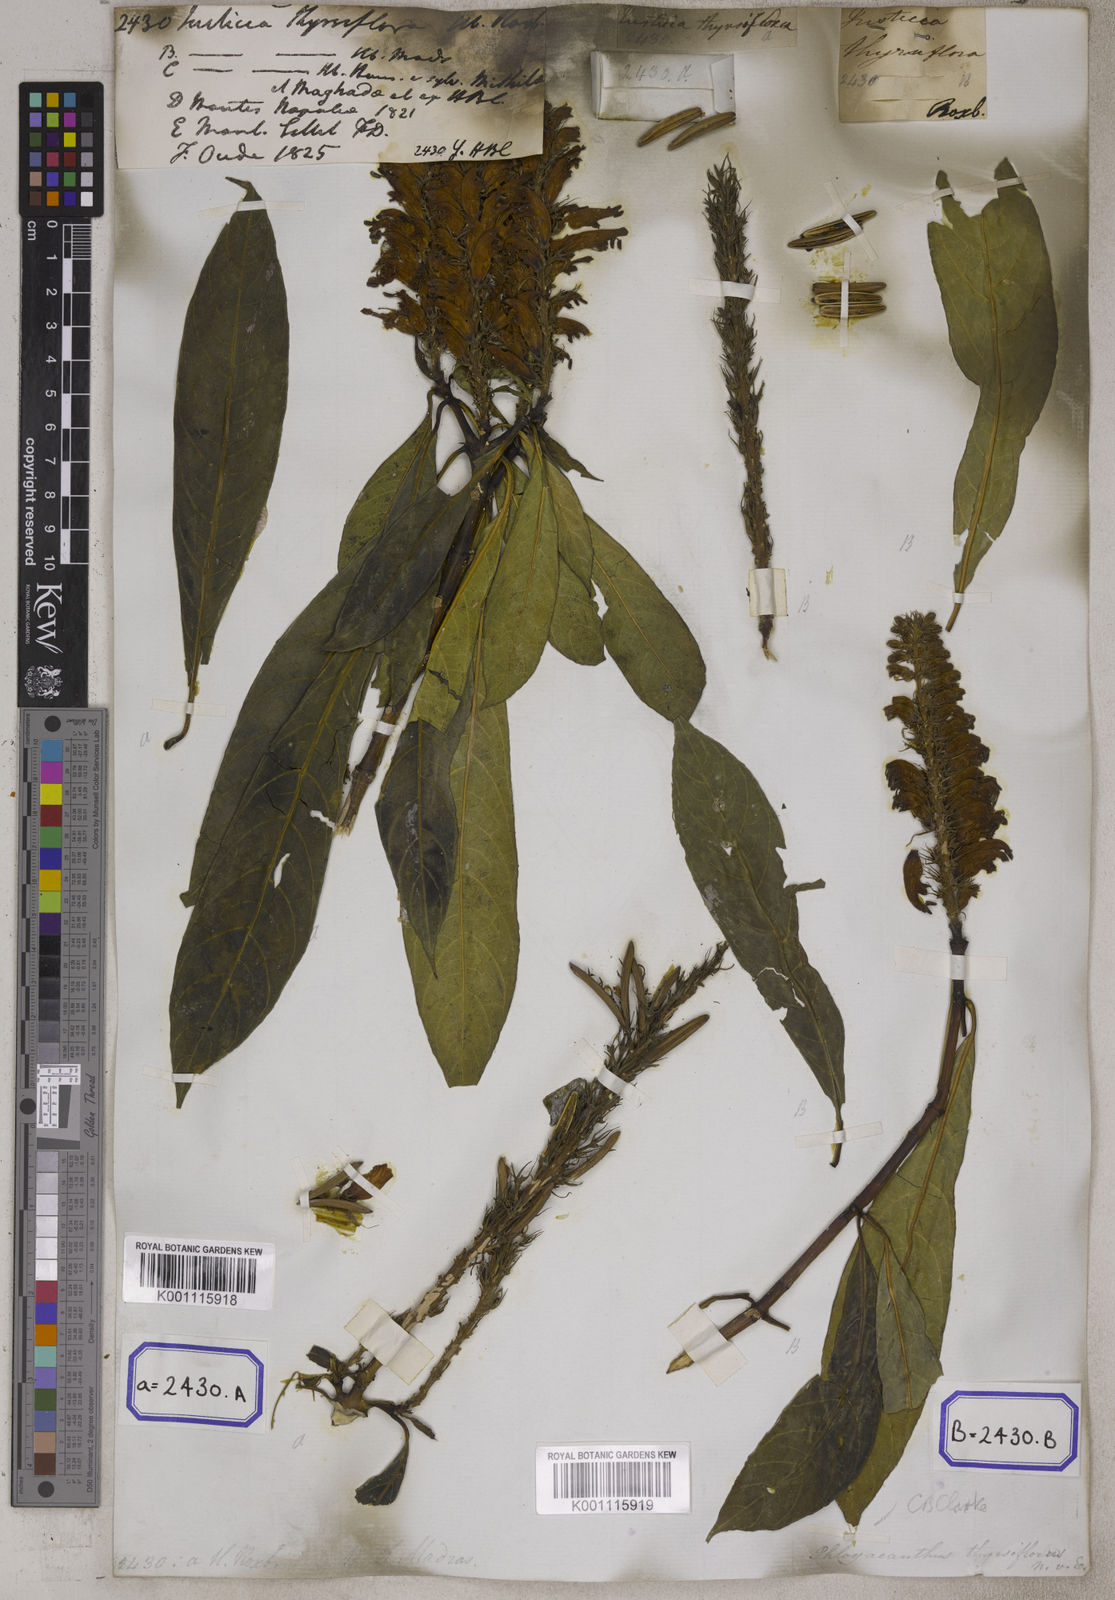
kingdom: Plantae
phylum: Tracheophyta
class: Magnoliopsida
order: Lamiales
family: Acanthaceae
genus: Justicia
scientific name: Justicia
